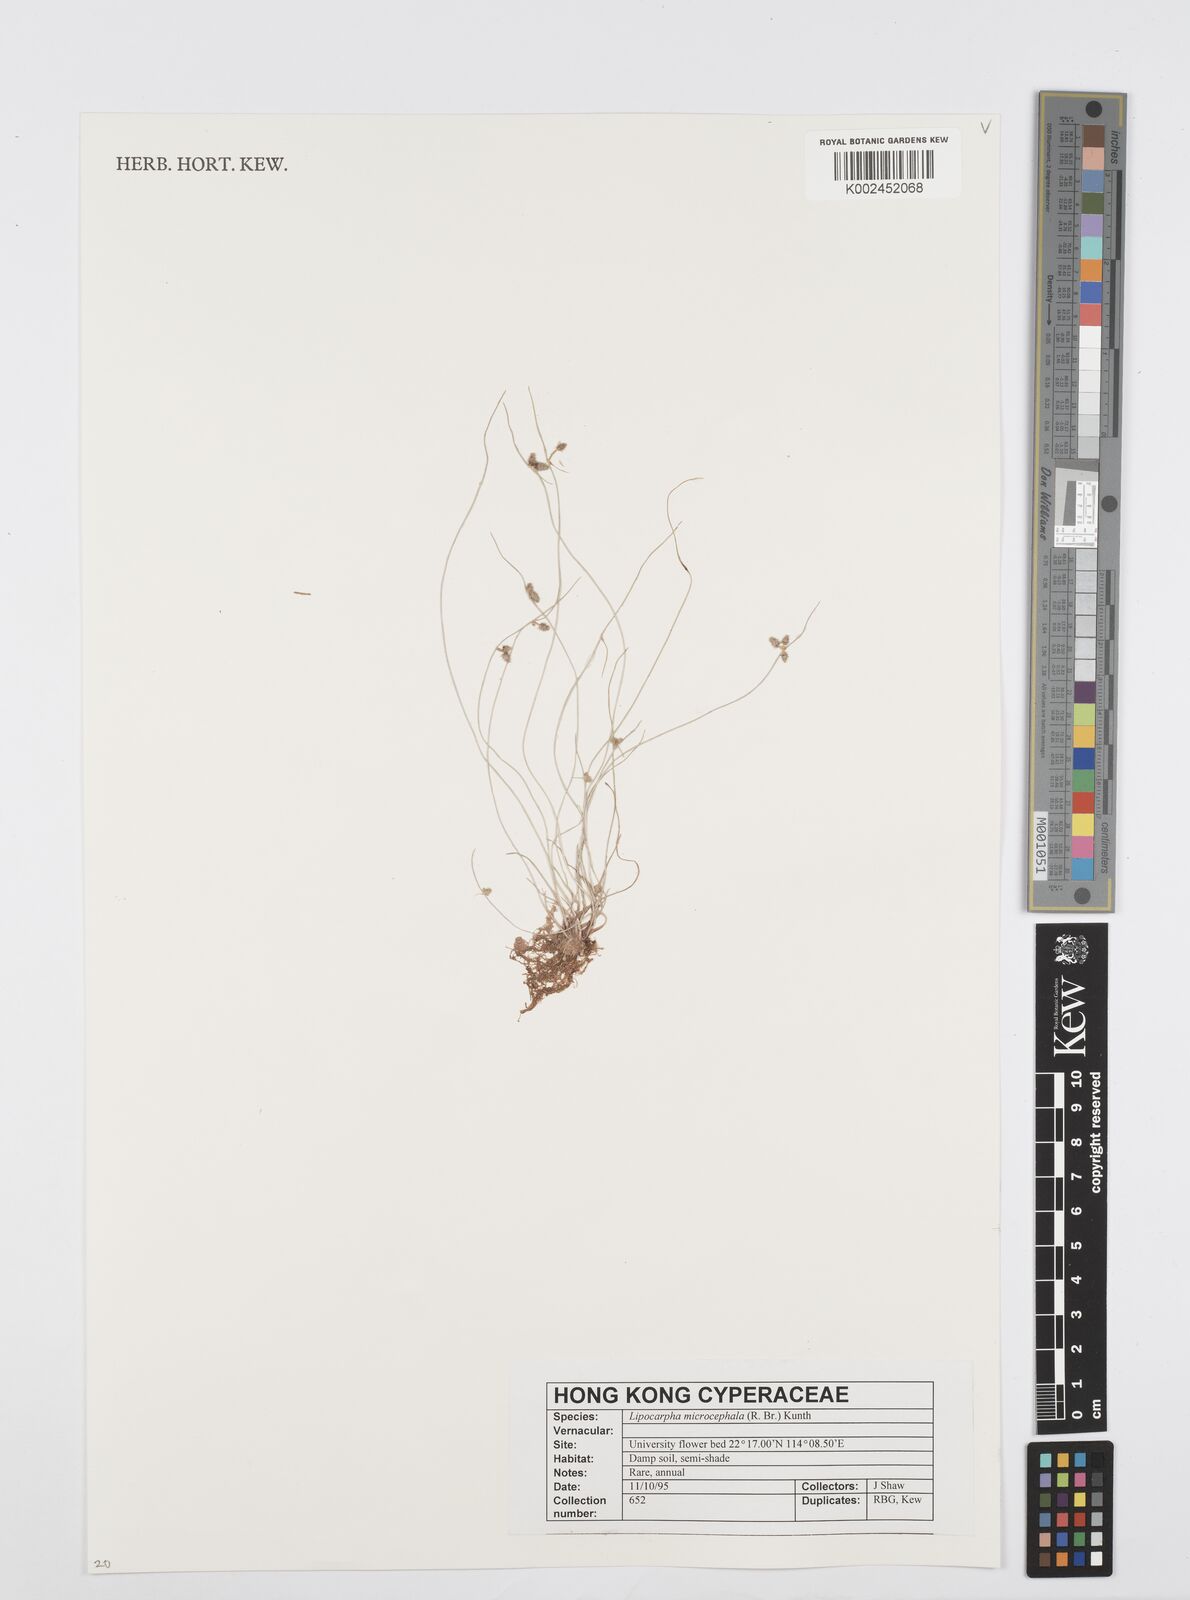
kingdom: Plantae
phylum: Tracheophyta
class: Liliopsida
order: Poales
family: Cyperaceae
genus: Cyperus
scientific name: Cyperus microcephalus
